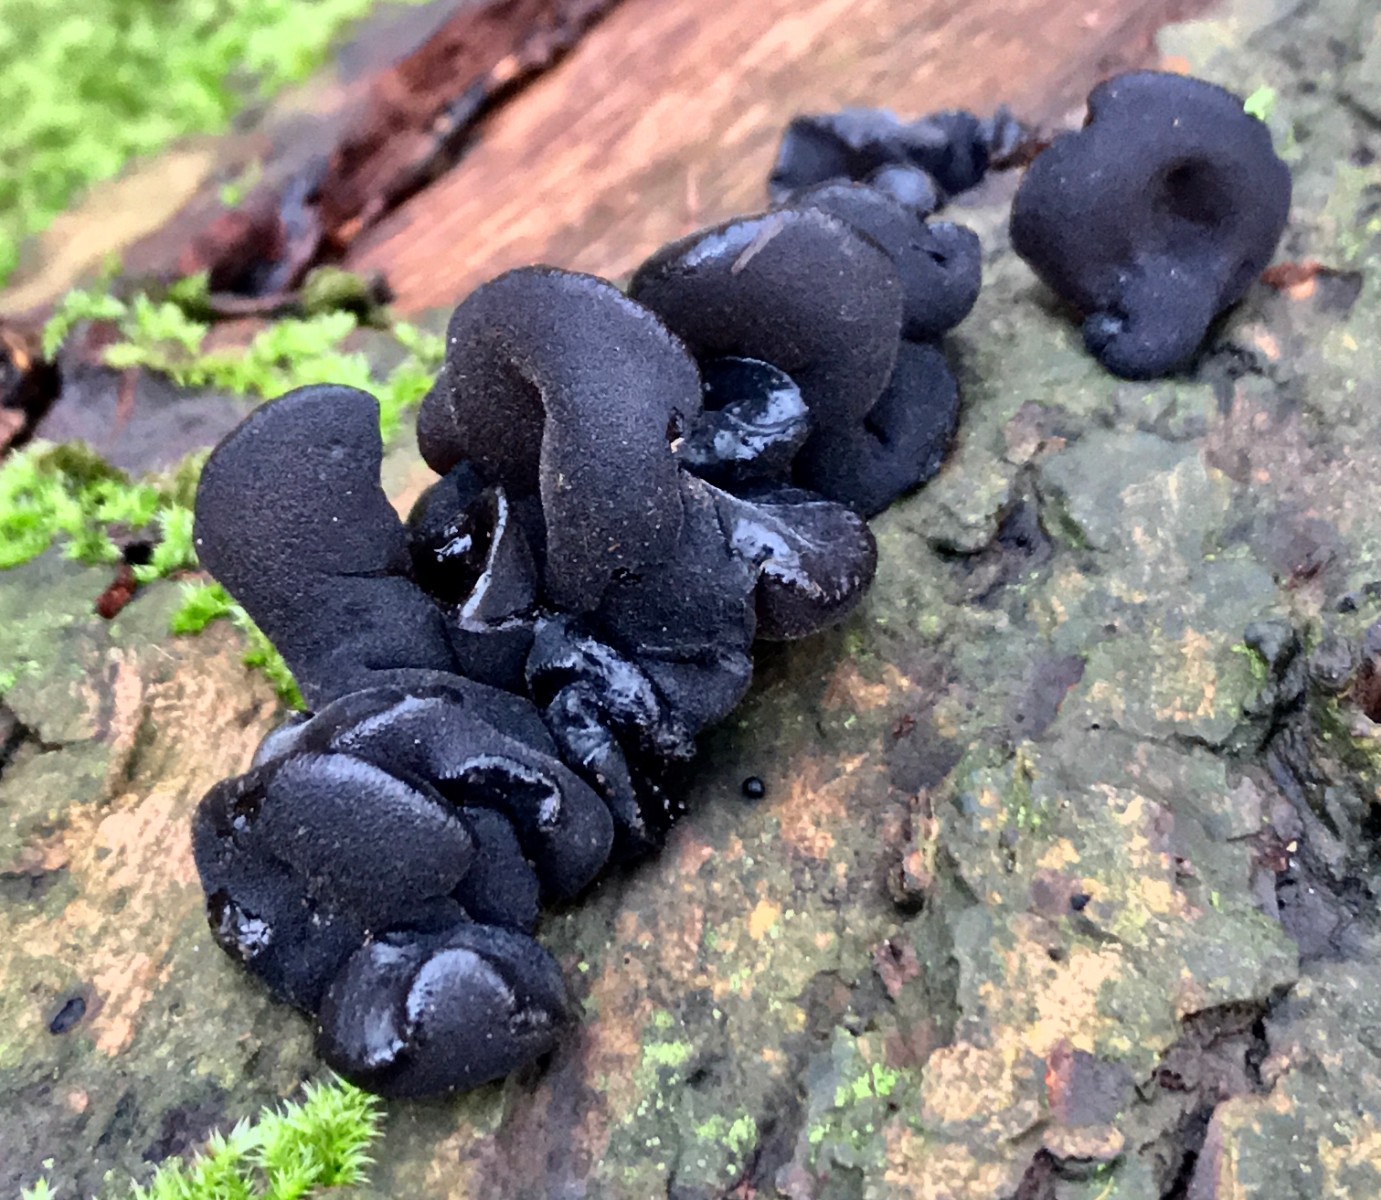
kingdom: Fungi
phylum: Basidiomycota
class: Agaricomycetes
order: Auriculariales
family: Auriculariaceae
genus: Exidia
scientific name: Exidia glandulosa
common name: ege-bævretop
